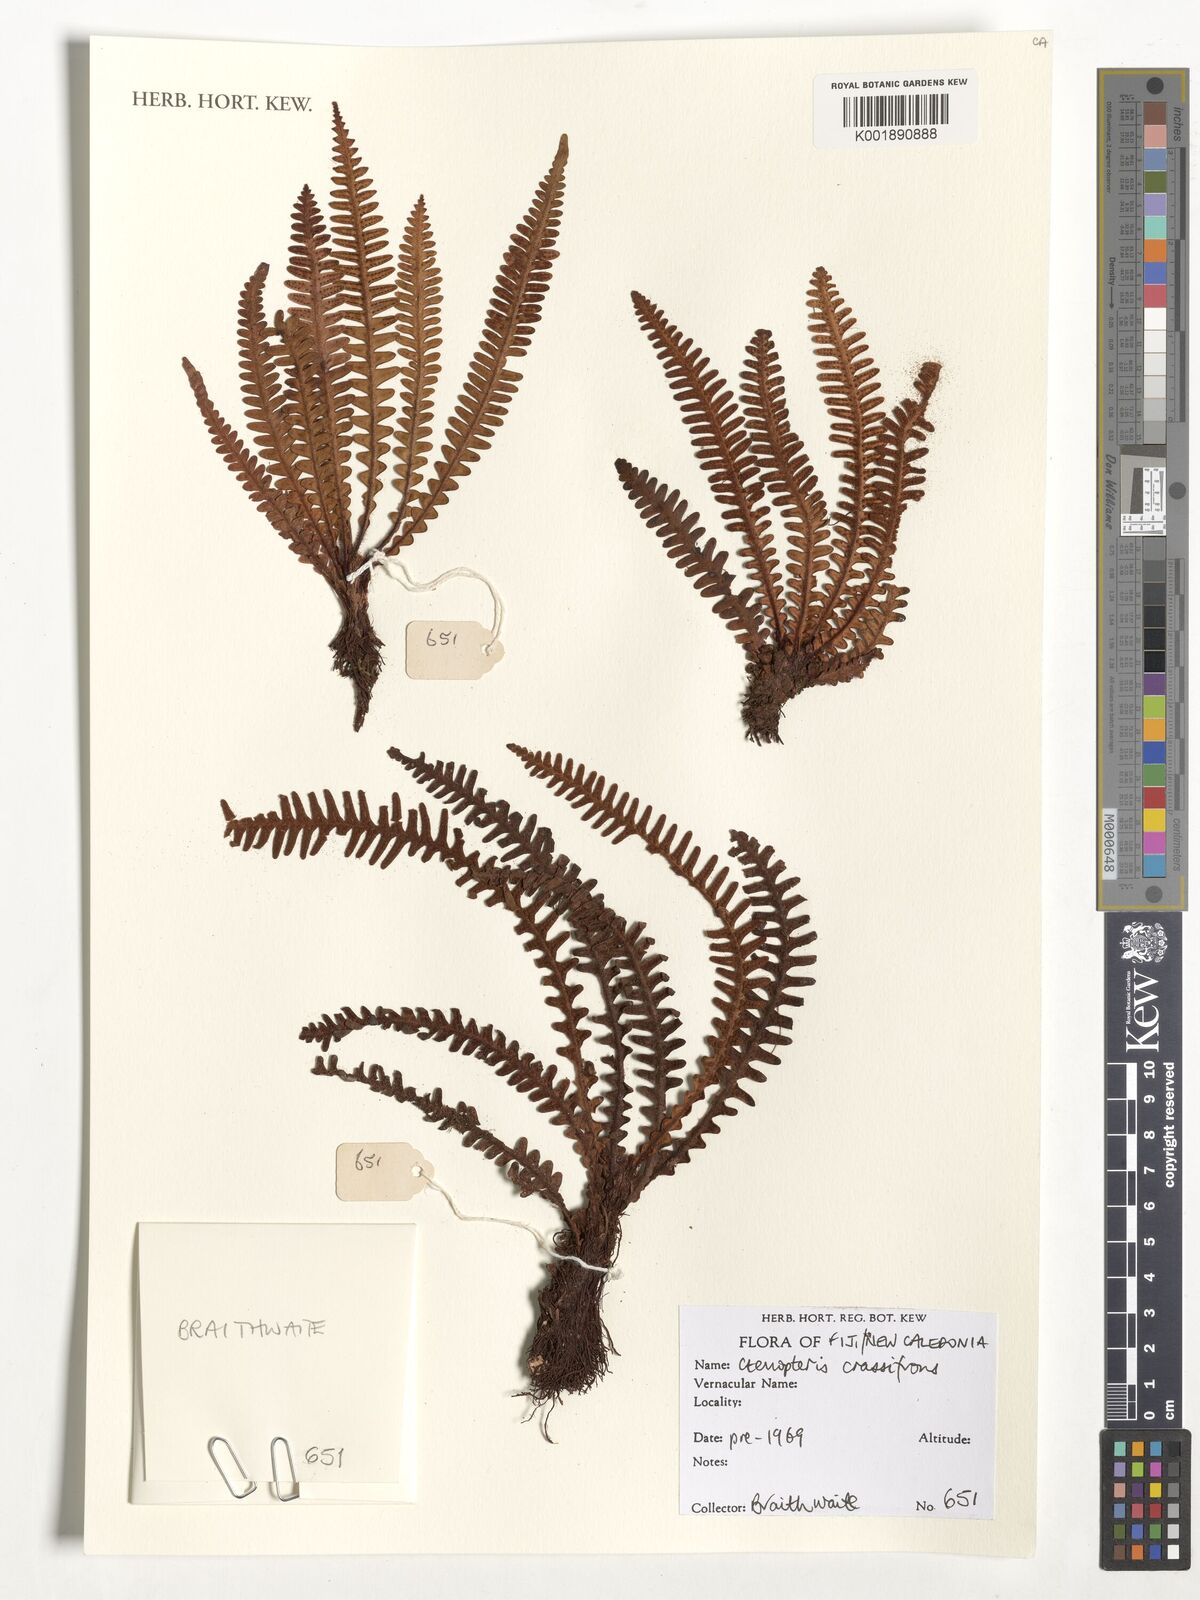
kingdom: Plantae
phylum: Tracheophyta
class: Polypodiopsida
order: Polypodiales
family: Polypodiaceae
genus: Dasygrammitis
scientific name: Dasygrammitis crassifrons
